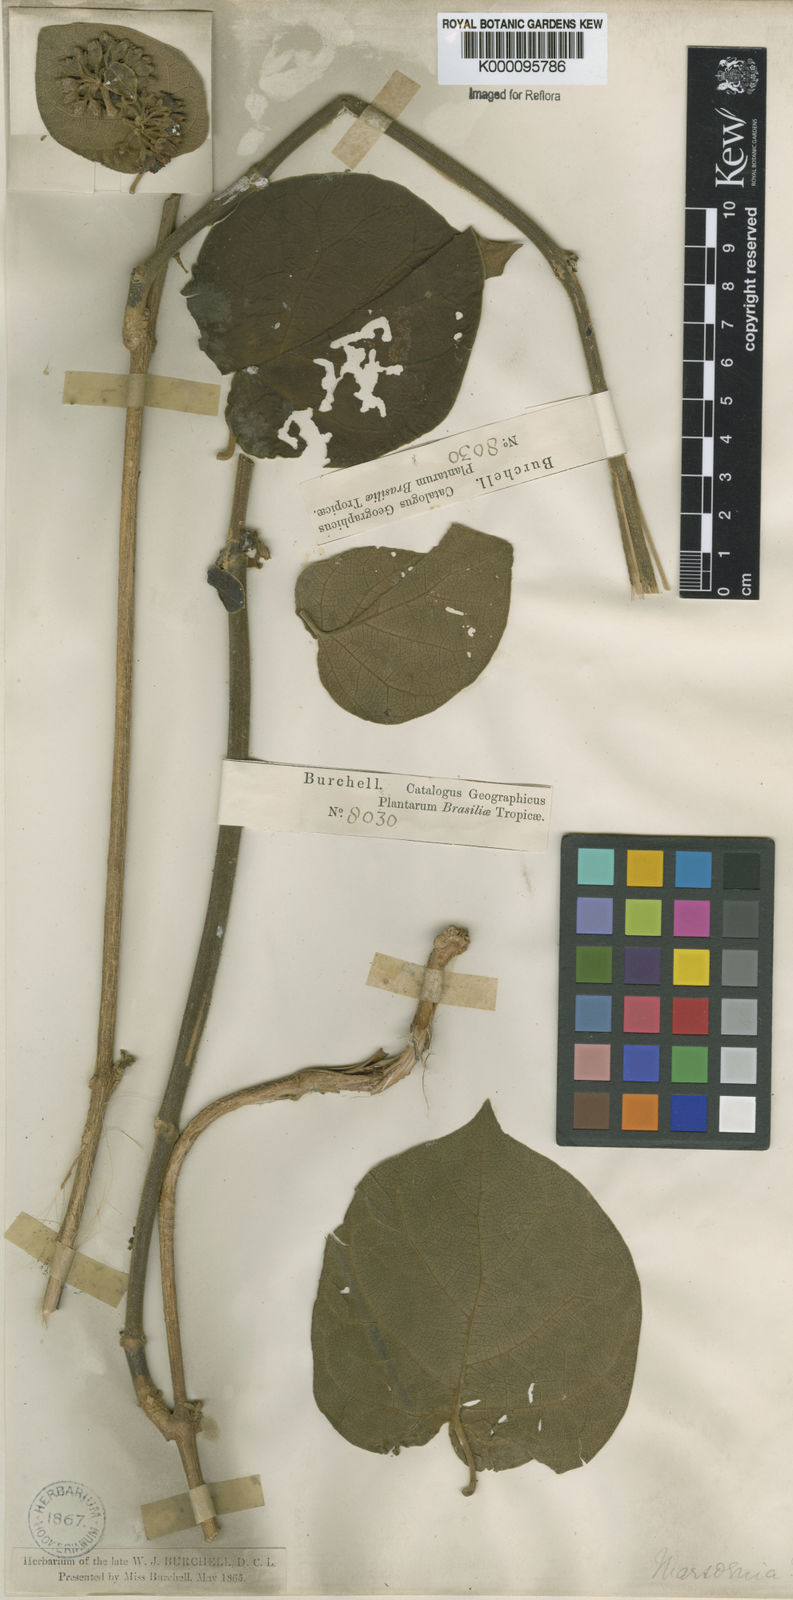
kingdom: Plantae
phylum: Tracheophyta
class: Magnoliopsida
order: Gentianales
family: Apocynaceae
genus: Ruehssia
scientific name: Ruehssia altissima
